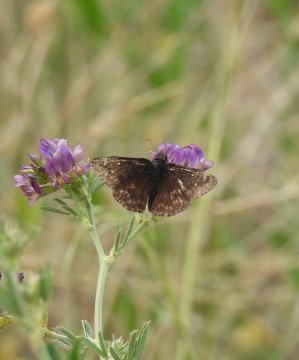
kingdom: Animalia
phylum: Arthropoda
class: Insecta
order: Lepidoptera
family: Hesperiidae
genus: Gesta
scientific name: Gesta
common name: Persius Duskywing
